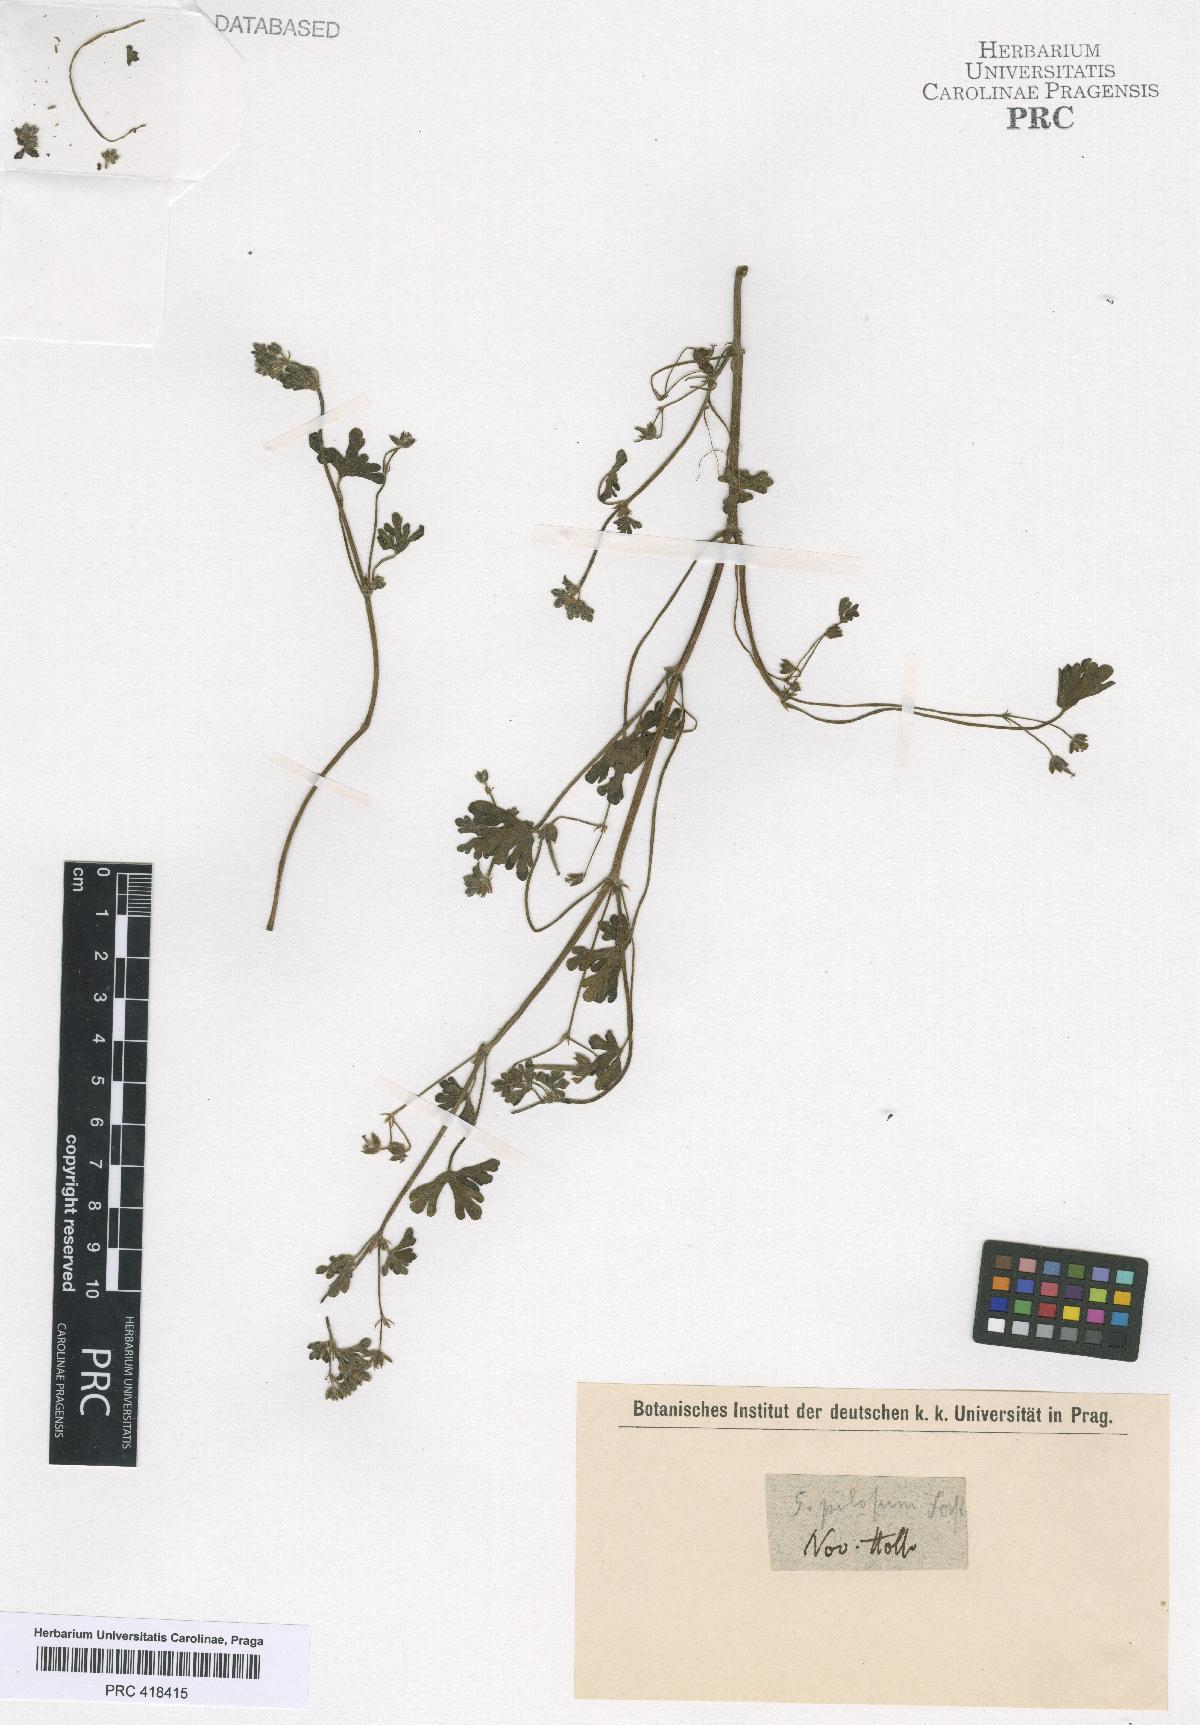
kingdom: Plantae
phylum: Tracheophyta
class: Magnoliopsida
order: Geraniales
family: Geraniaceae
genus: Geranium
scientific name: Geranium
